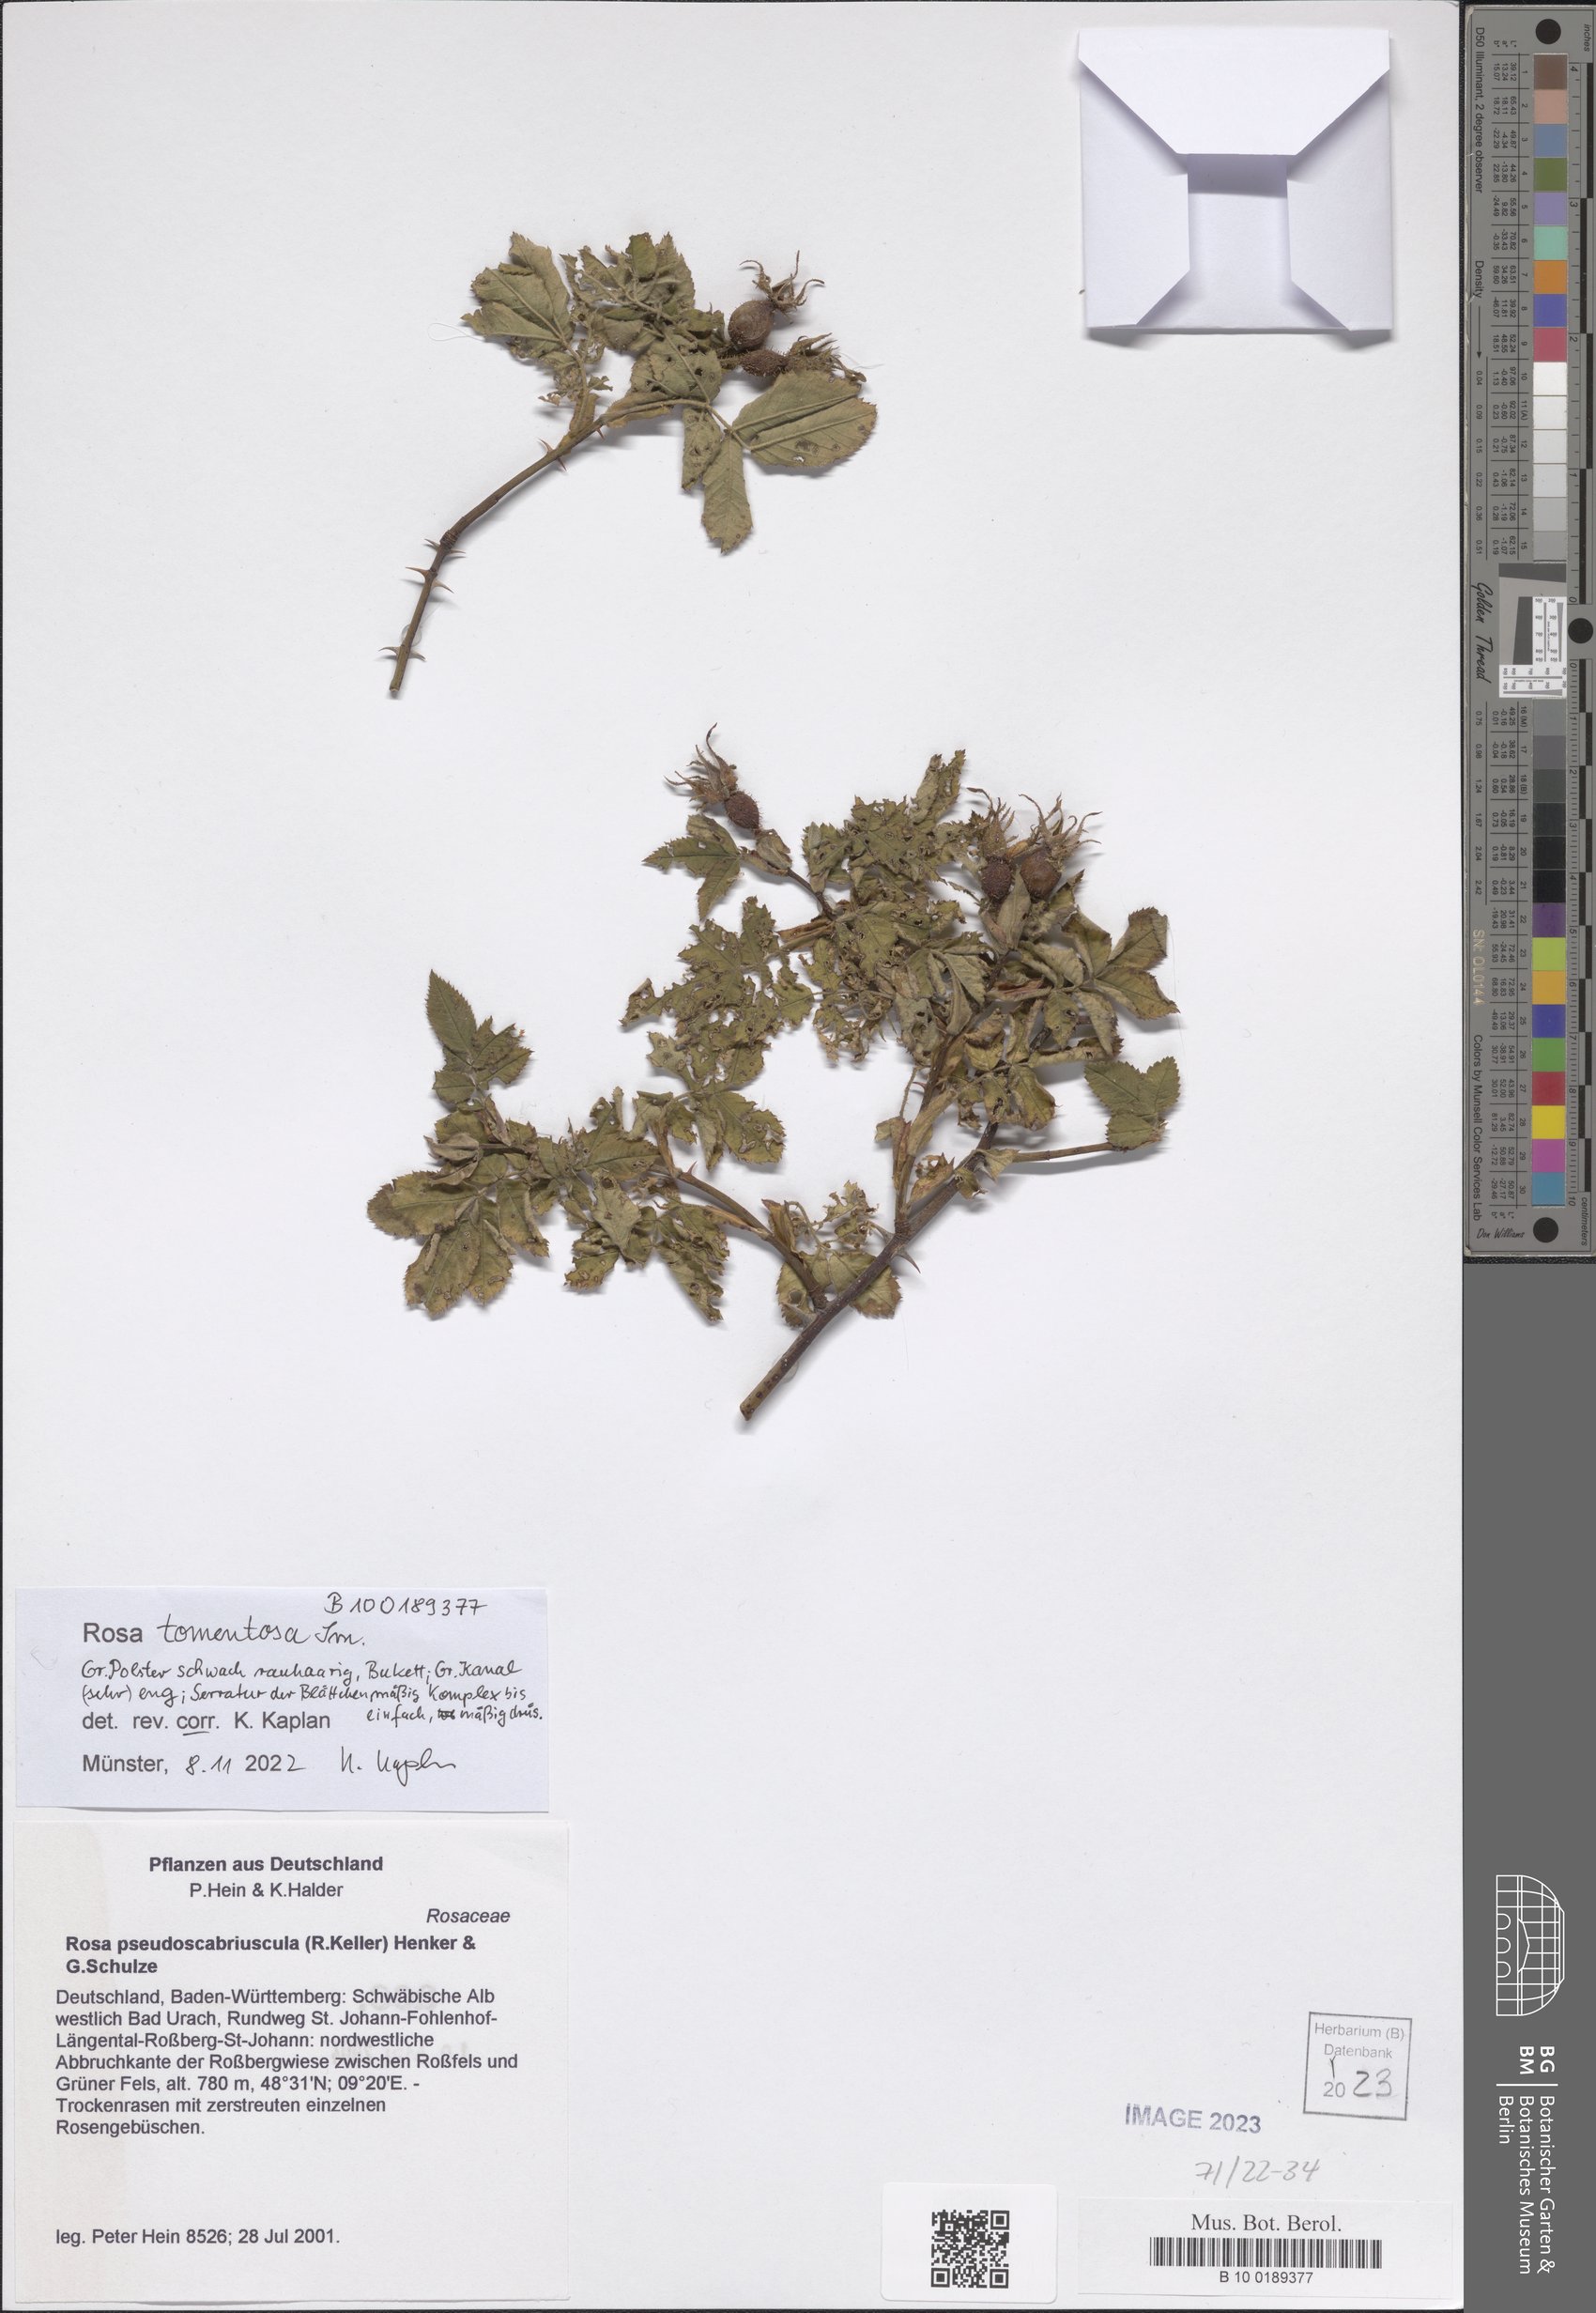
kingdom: Plantae
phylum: Tracheophyta
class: Magnoliopsida
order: Rosales
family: Rosaceae
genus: Rosa
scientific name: Rosa tomentosa
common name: Downy rose
